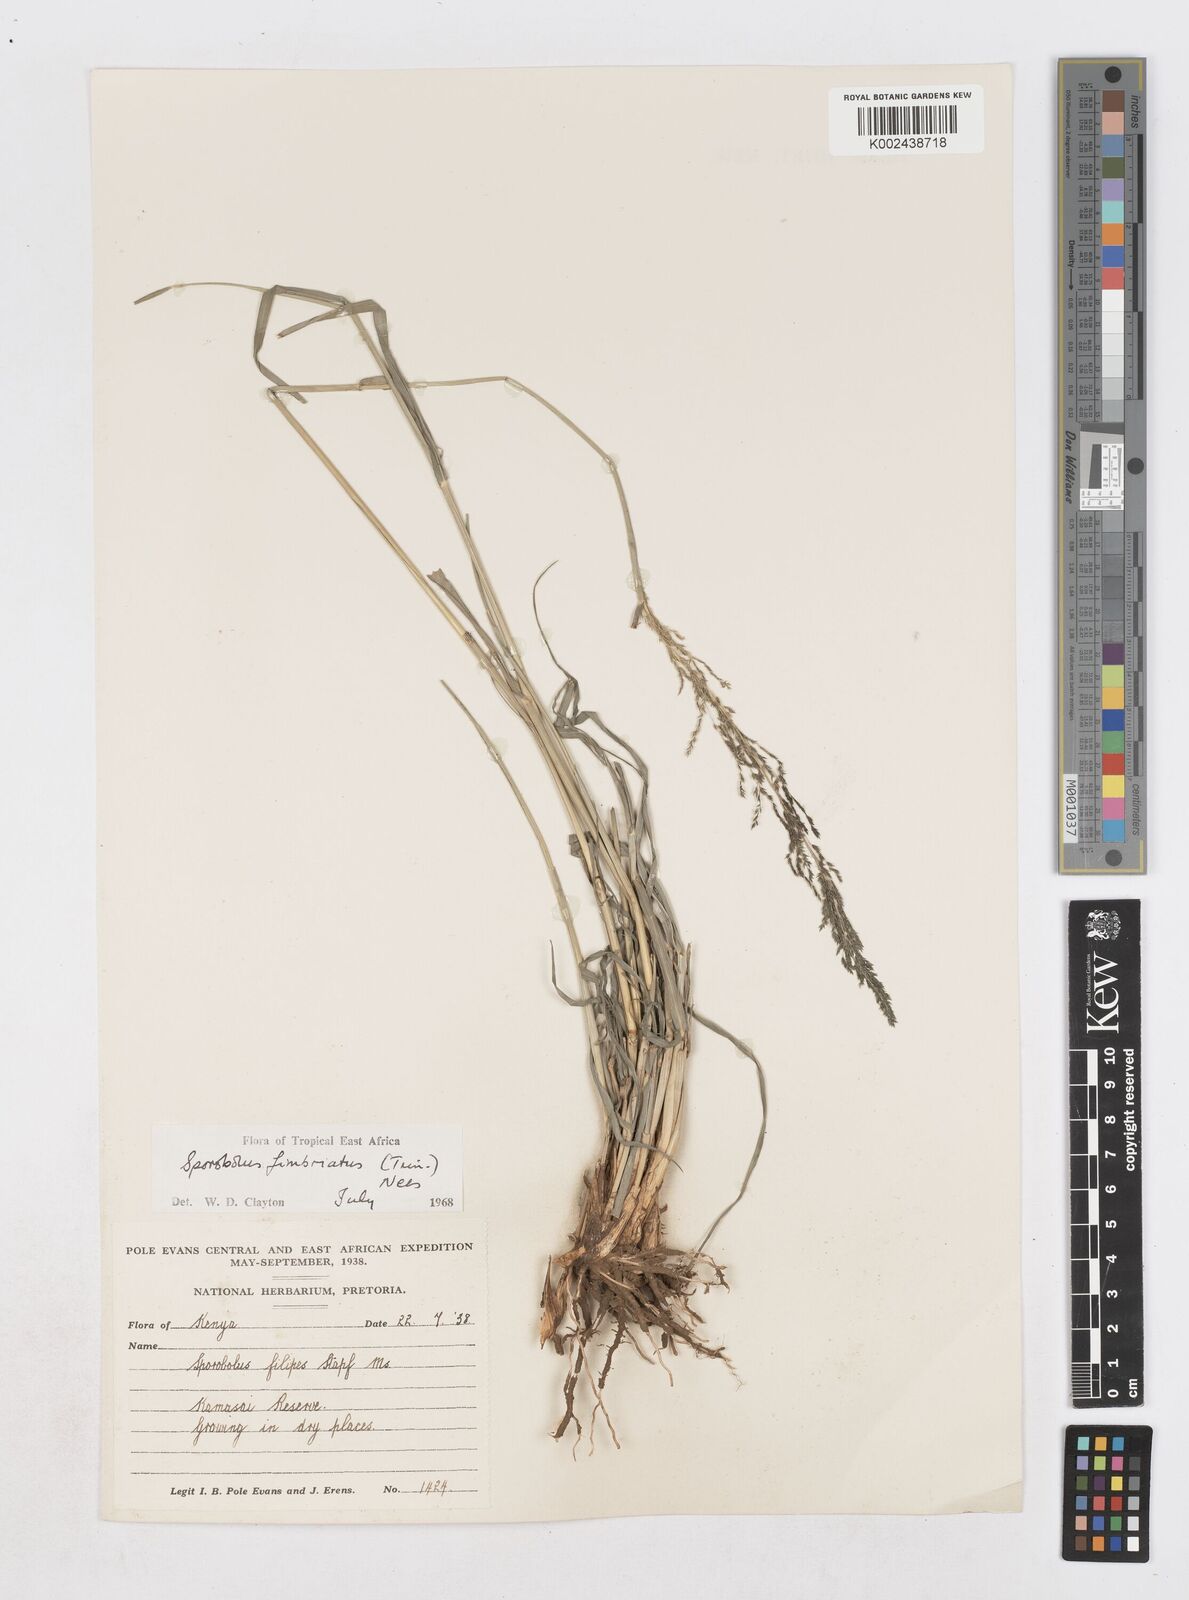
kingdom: Plantae
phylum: Tracheophyta
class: Liliopsida
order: Poales
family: Poaceae
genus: Sporobolus
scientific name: Sporobolus fimbriatus
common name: Fringed dropseed
